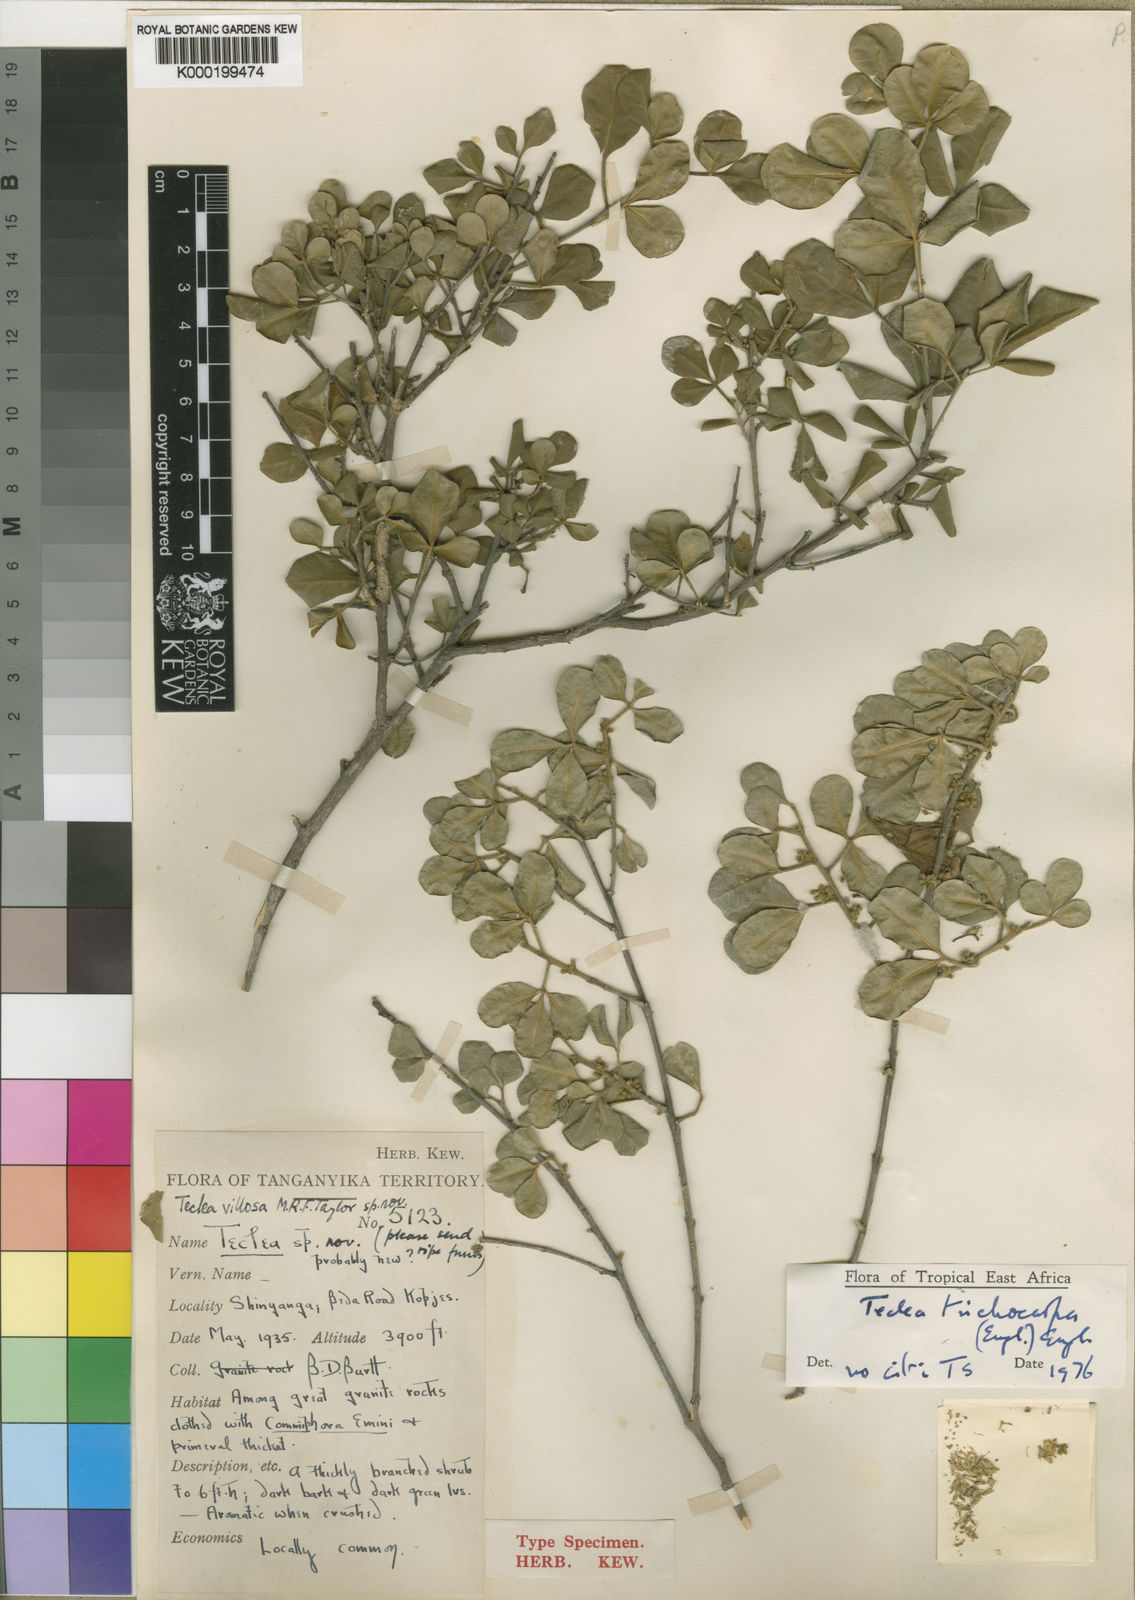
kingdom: Plantae
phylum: Tracheophyta
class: Magnoliopsida
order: Sapindales
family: Rutaceae
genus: Vepris
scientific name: Vepris trichocarpa
